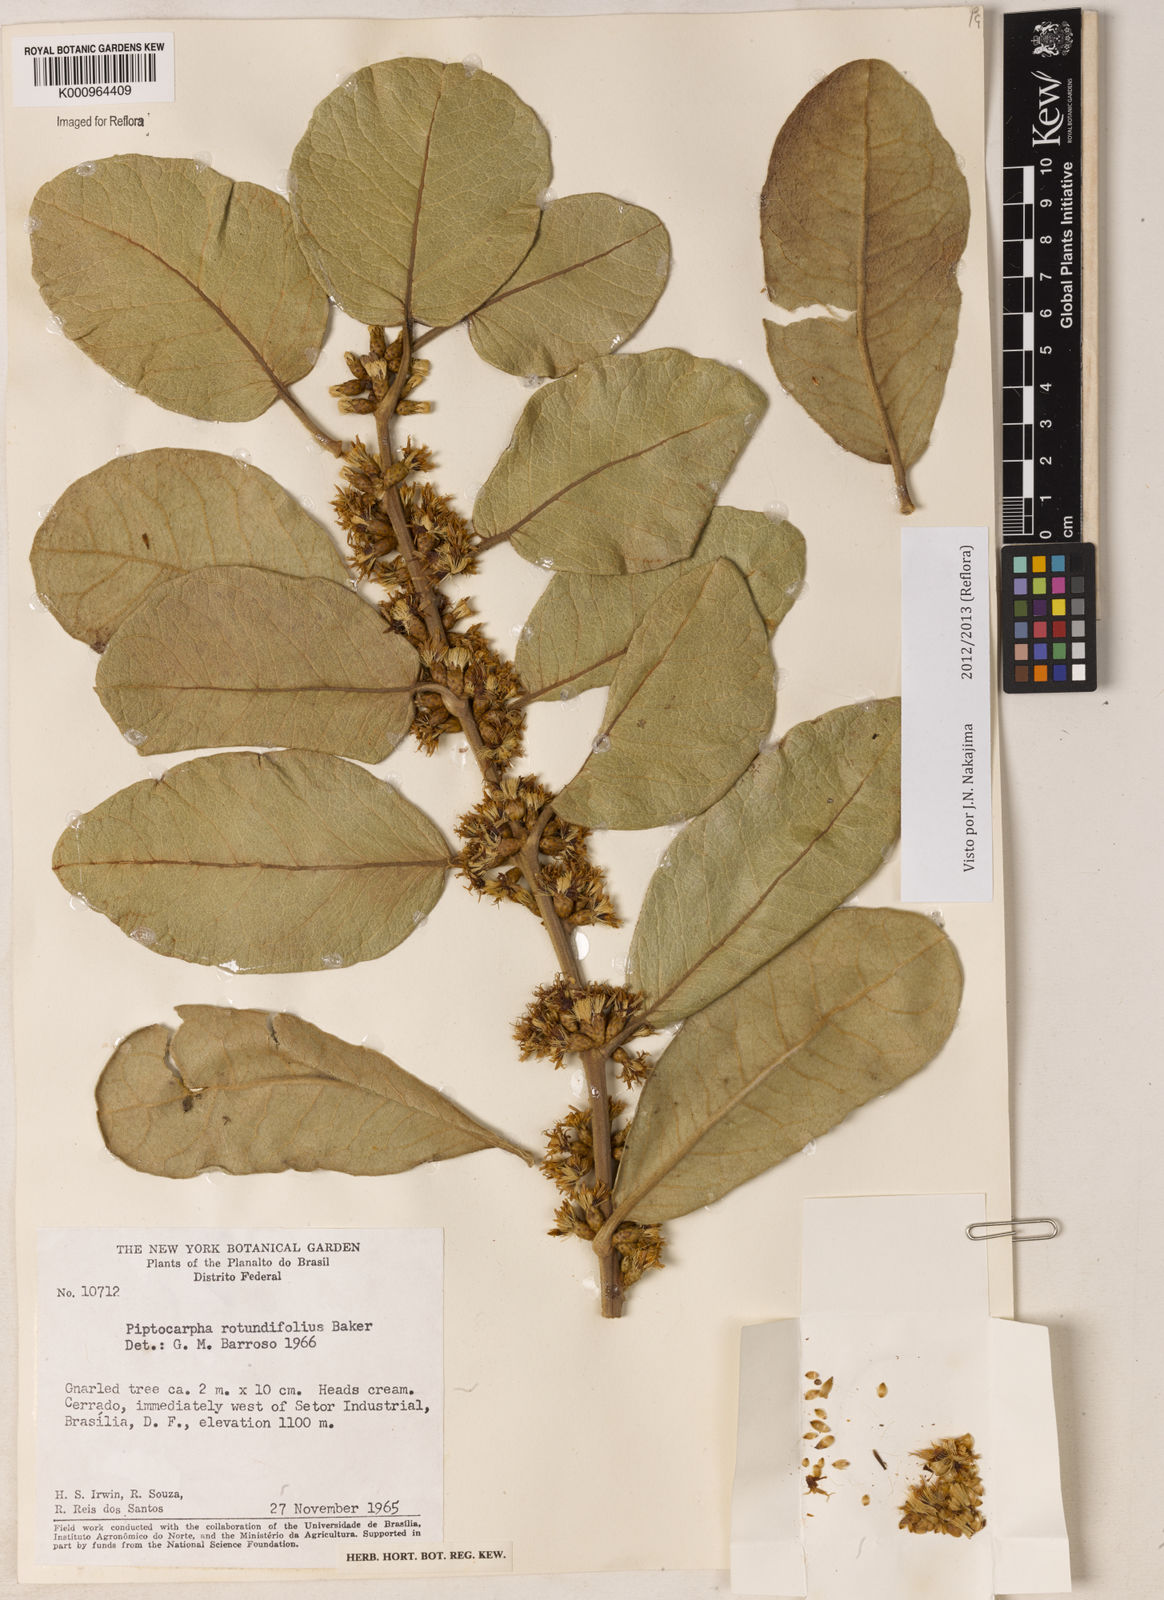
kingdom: Plantae
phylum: Tracheophyta
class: Magnoliopsida
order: Asterales
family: Asteraceae
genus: Piptocarpha
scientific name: Piptocarpha rotundifolia
